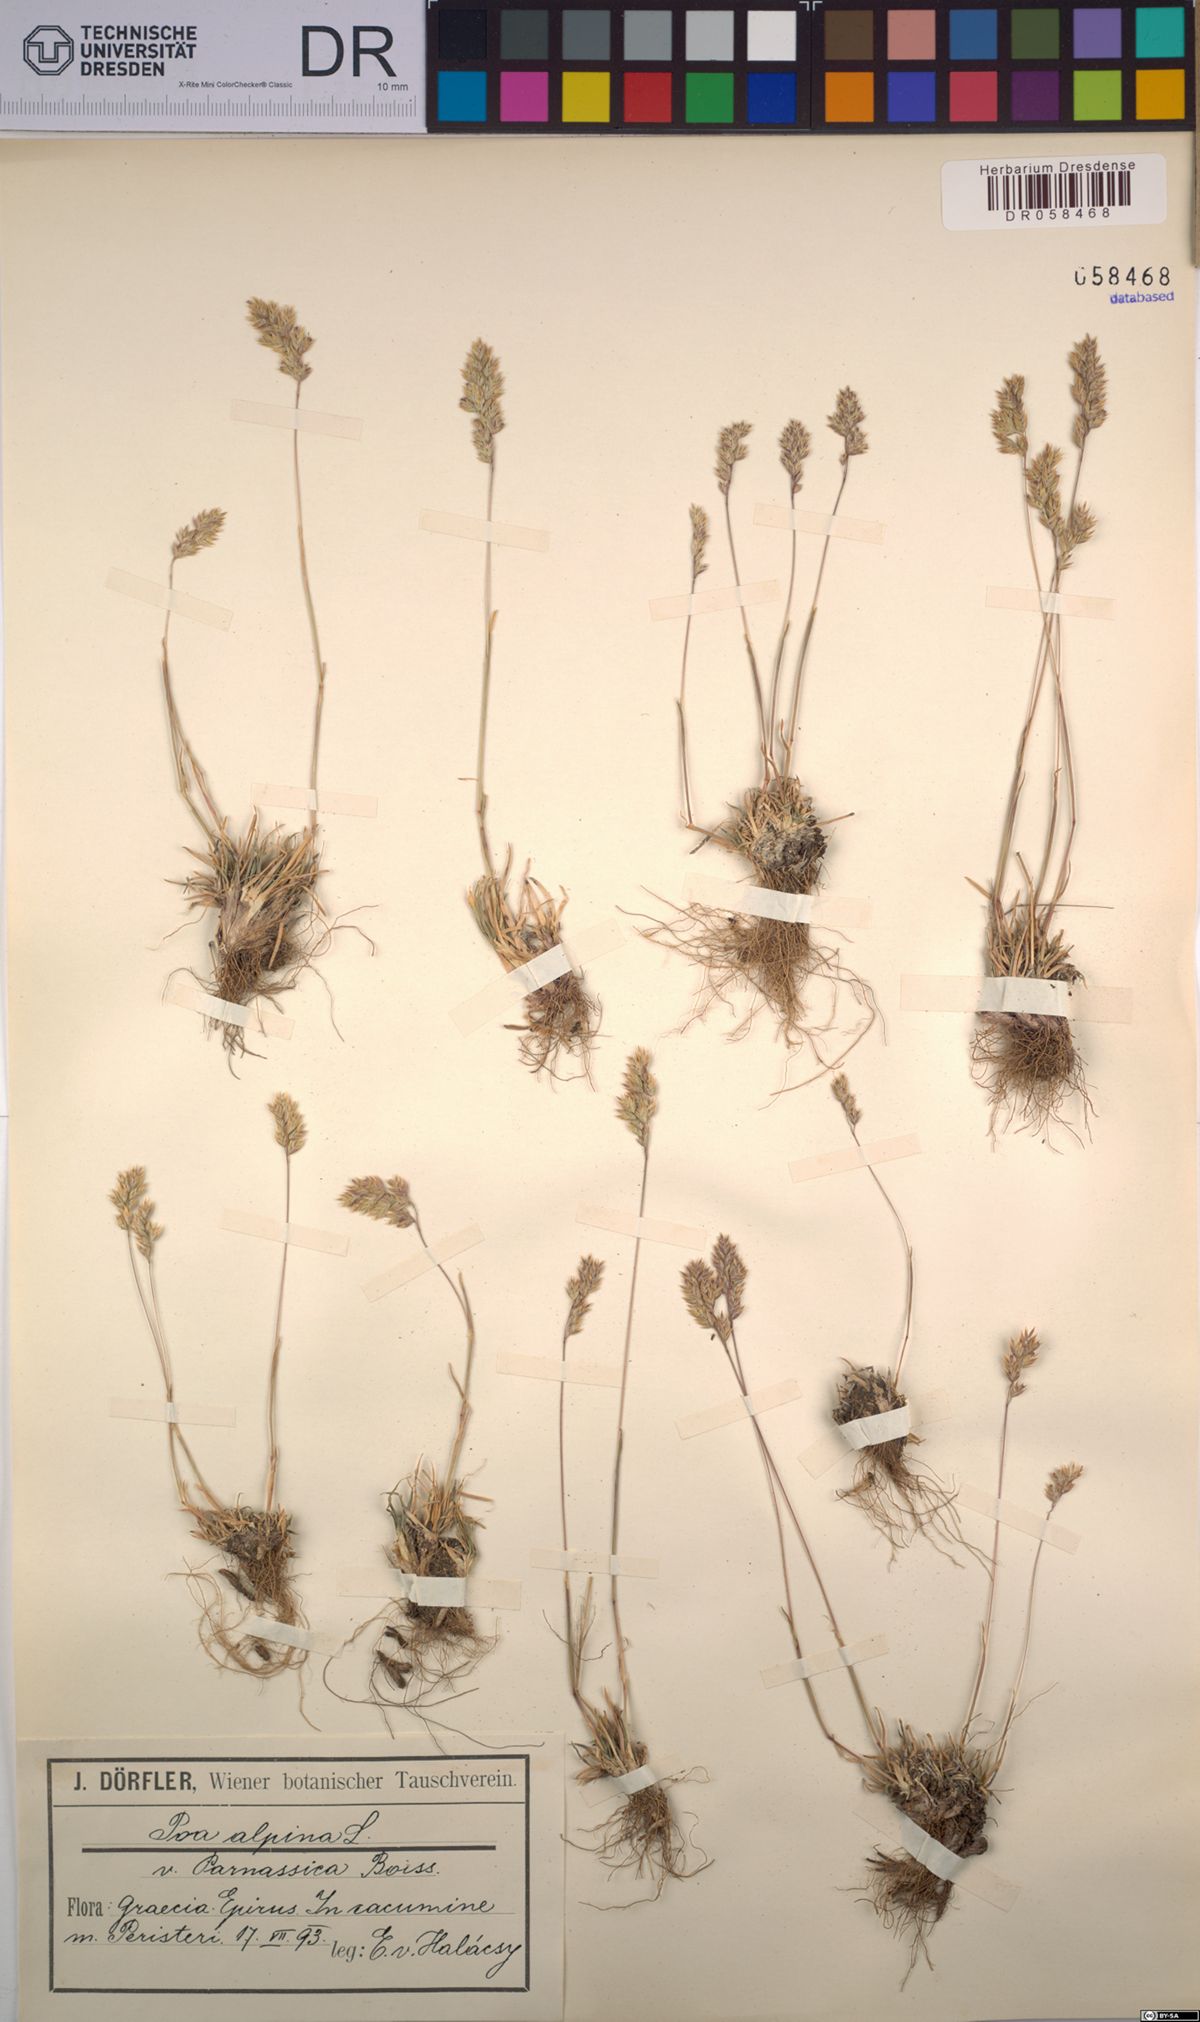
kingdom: Plantae
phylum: Tracheophyta
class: Liliopsida
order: Poales
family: Poaceae
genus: Poa
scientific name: Poa alpina
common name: Alpine bluegrass
